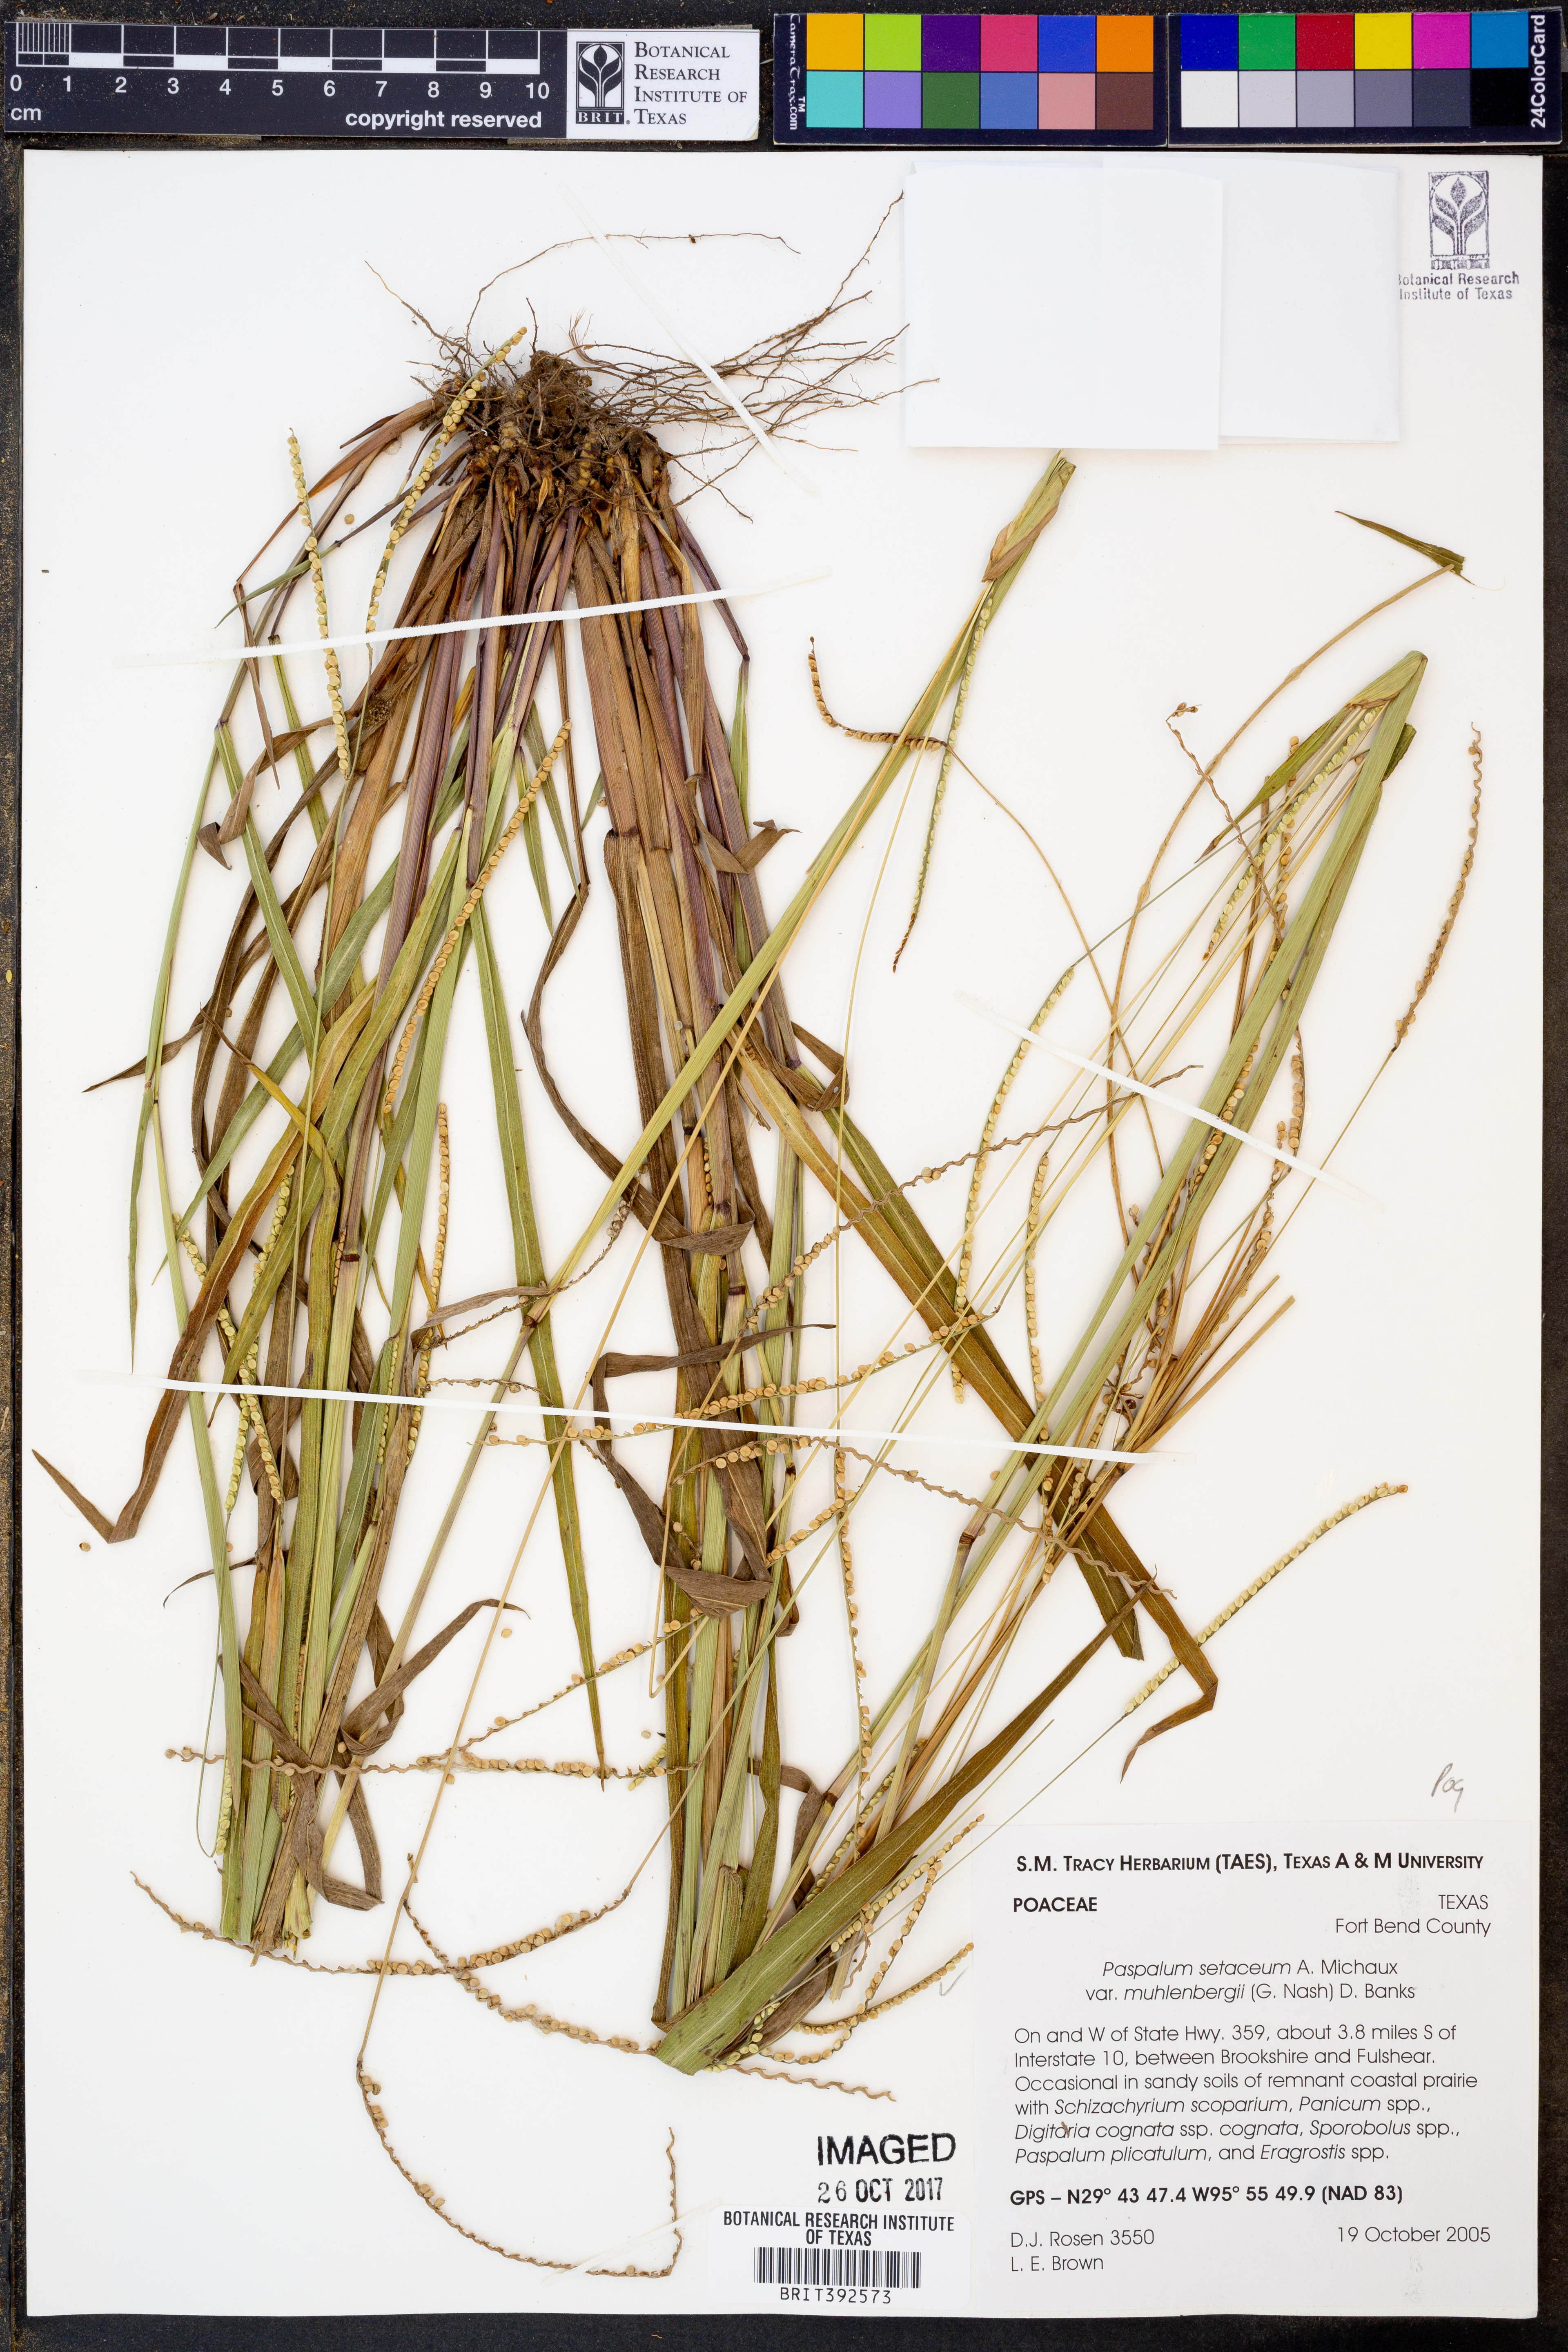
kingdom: Plantae
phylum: Tracheophyta
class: Liliopsida
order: Poales
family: Poaceae
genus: Paspalum
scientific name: Paspalum setaceum
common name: Slender paspalum
